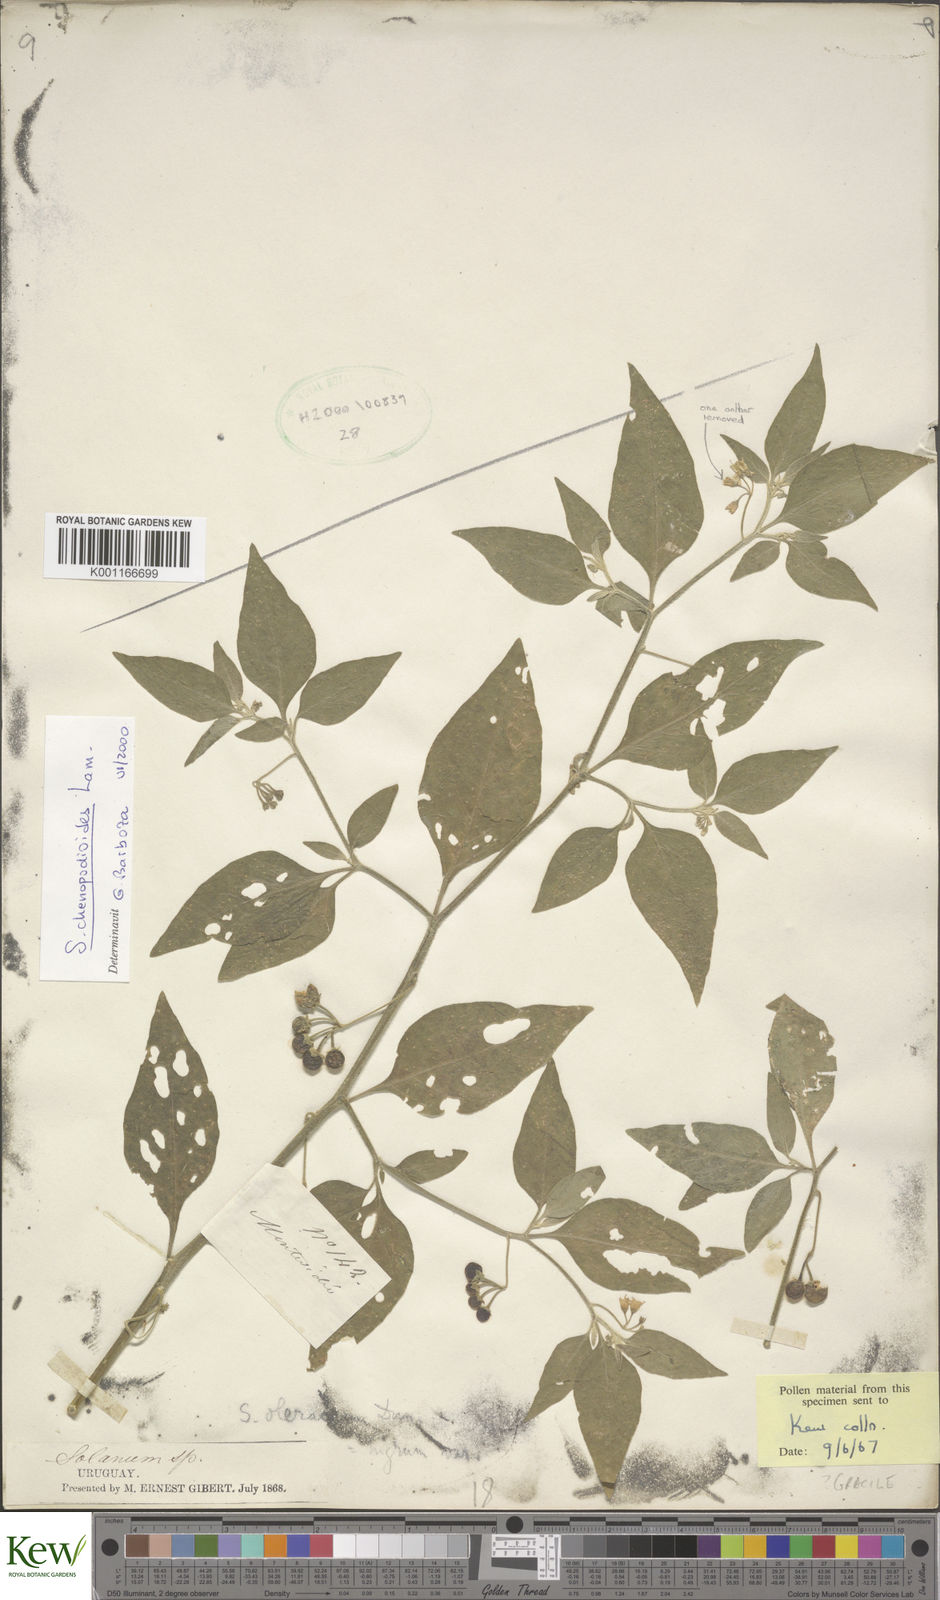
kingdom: Plantae
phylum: Tracheophyta
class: Magnoliopsida
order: Solanales
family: Solanaceae
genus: Solanum
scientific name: Solanum chenopodioides
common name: Tall nightshade
